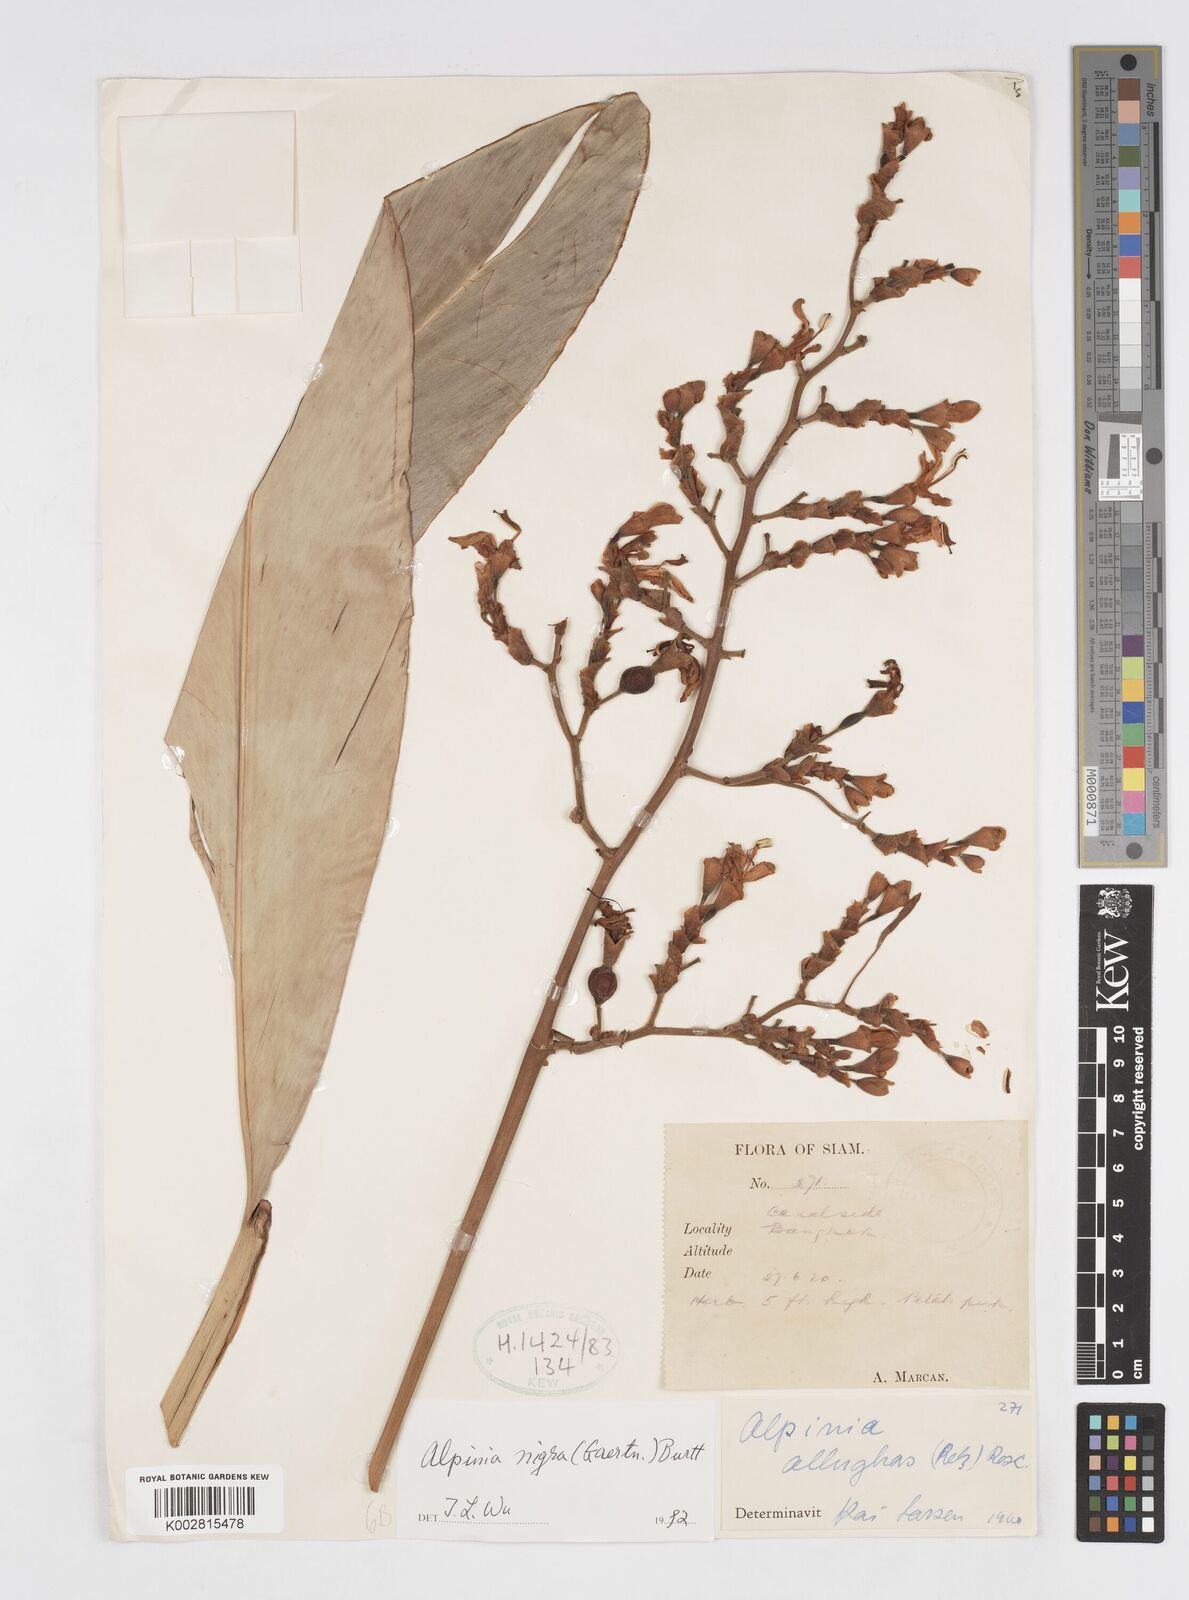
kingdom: Plantae
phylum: Tracheophyta
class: Liliopsida
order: Zingiberales
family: Zingiberaceae
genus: Alpinia
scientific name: Alpinia nigra
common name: Black fruited galanga
